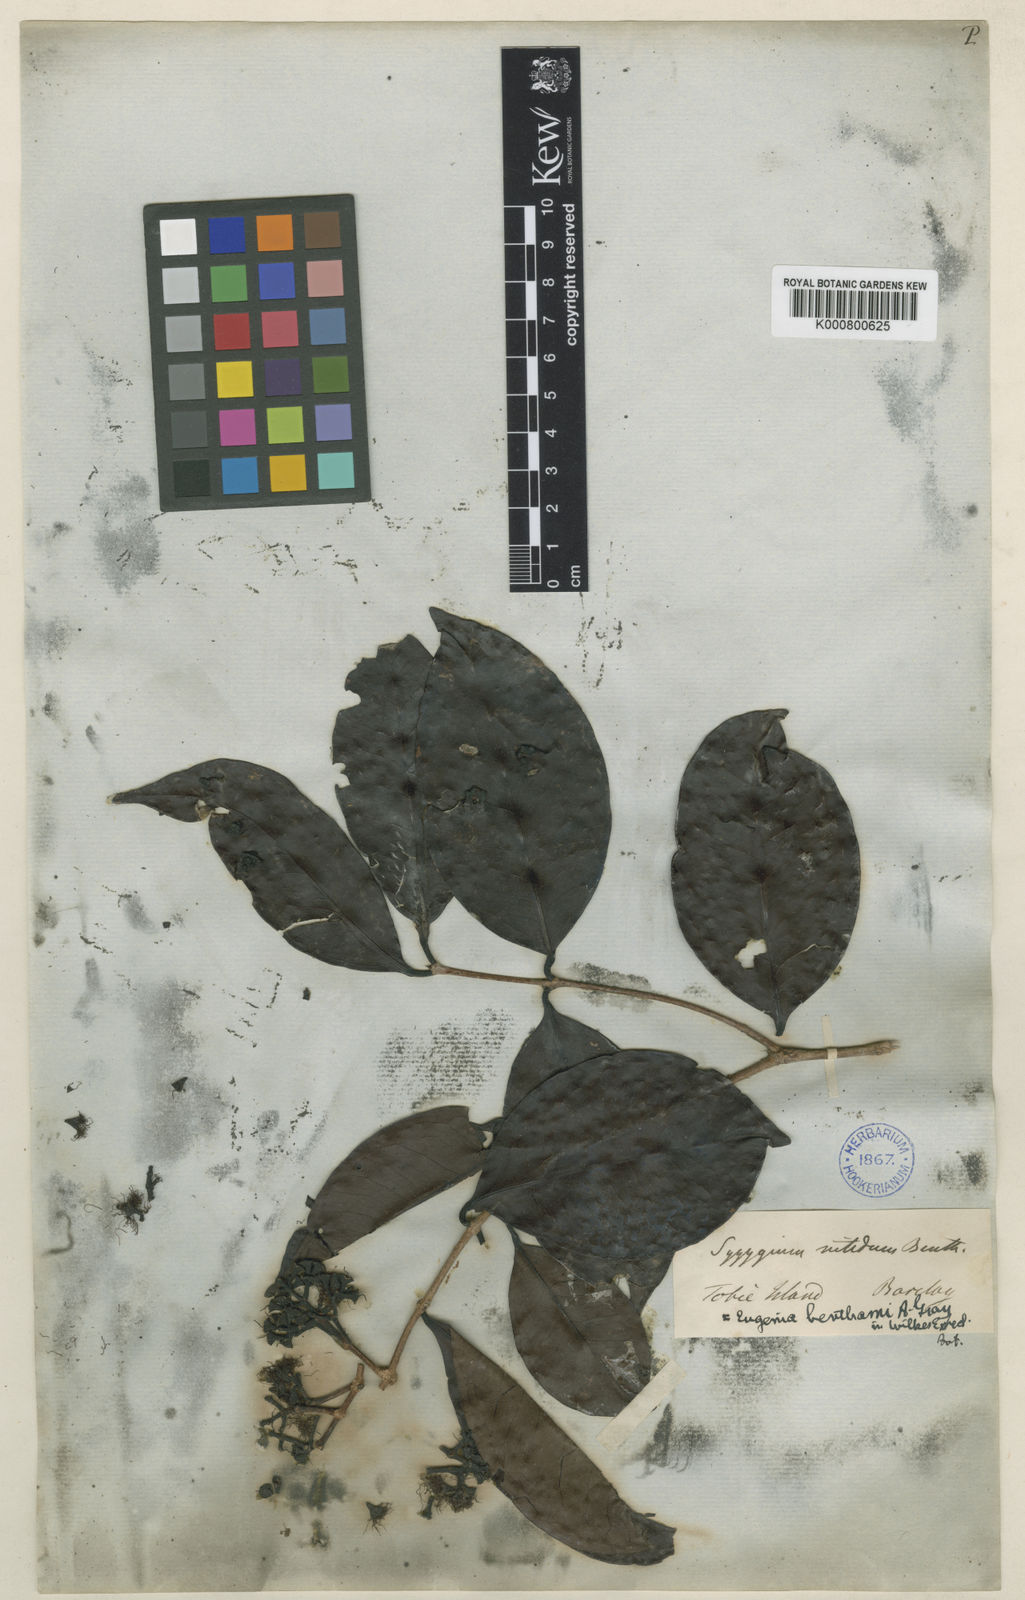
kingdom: Plantae
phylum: Tracheophyta
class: Magnoliopsida
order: Myrtales
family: Myrtaceae
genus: Syzygium
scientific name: Syzygium nitidum
